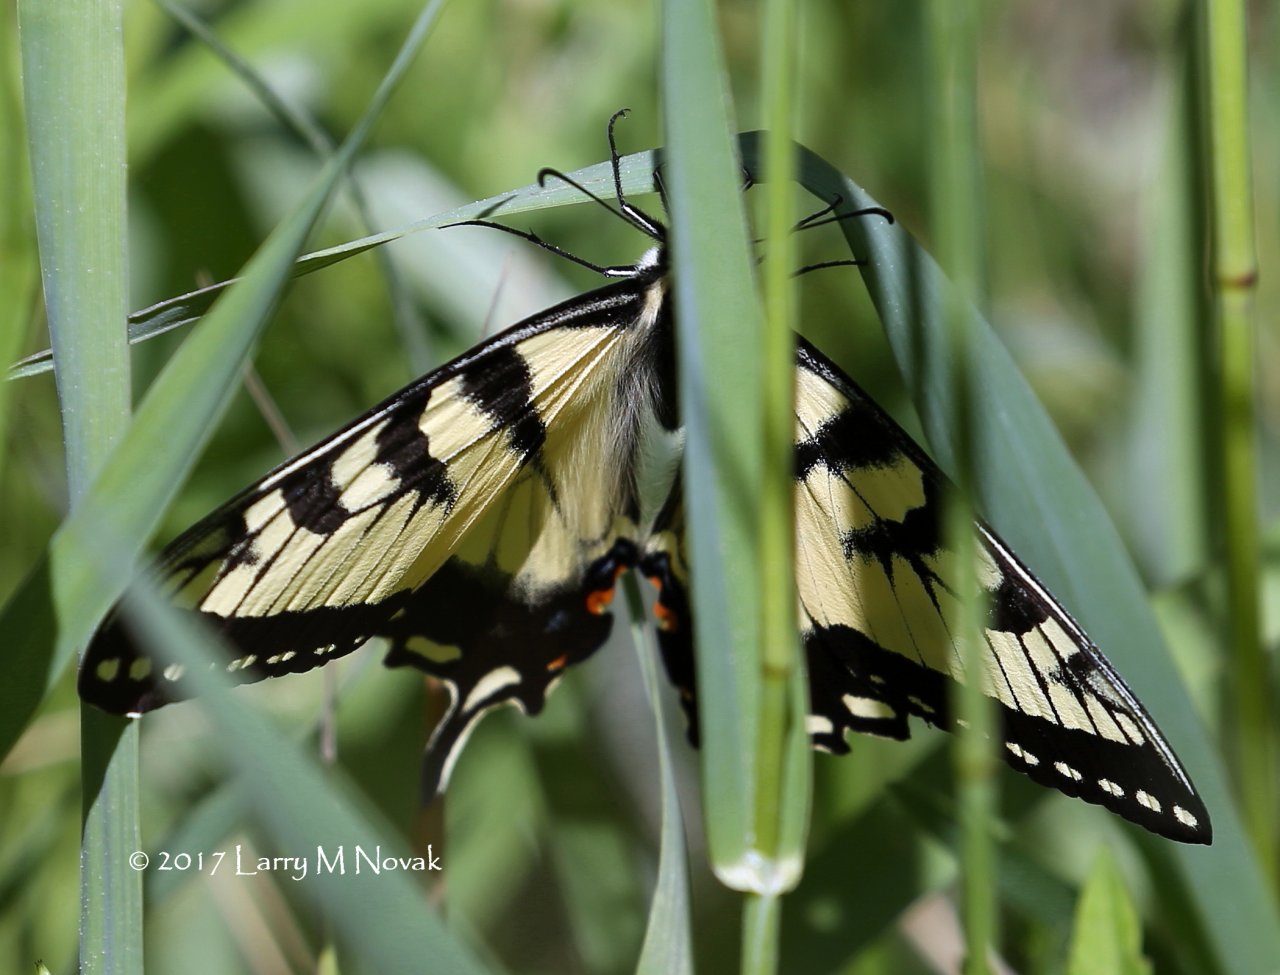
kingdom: Animalia
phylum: Arthropoda
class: Insecta
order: Lepidoptera
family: Papilionidae
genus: Pterourus
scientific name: Pterourus canadensis
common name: Canadian Tiger Swallowtail
